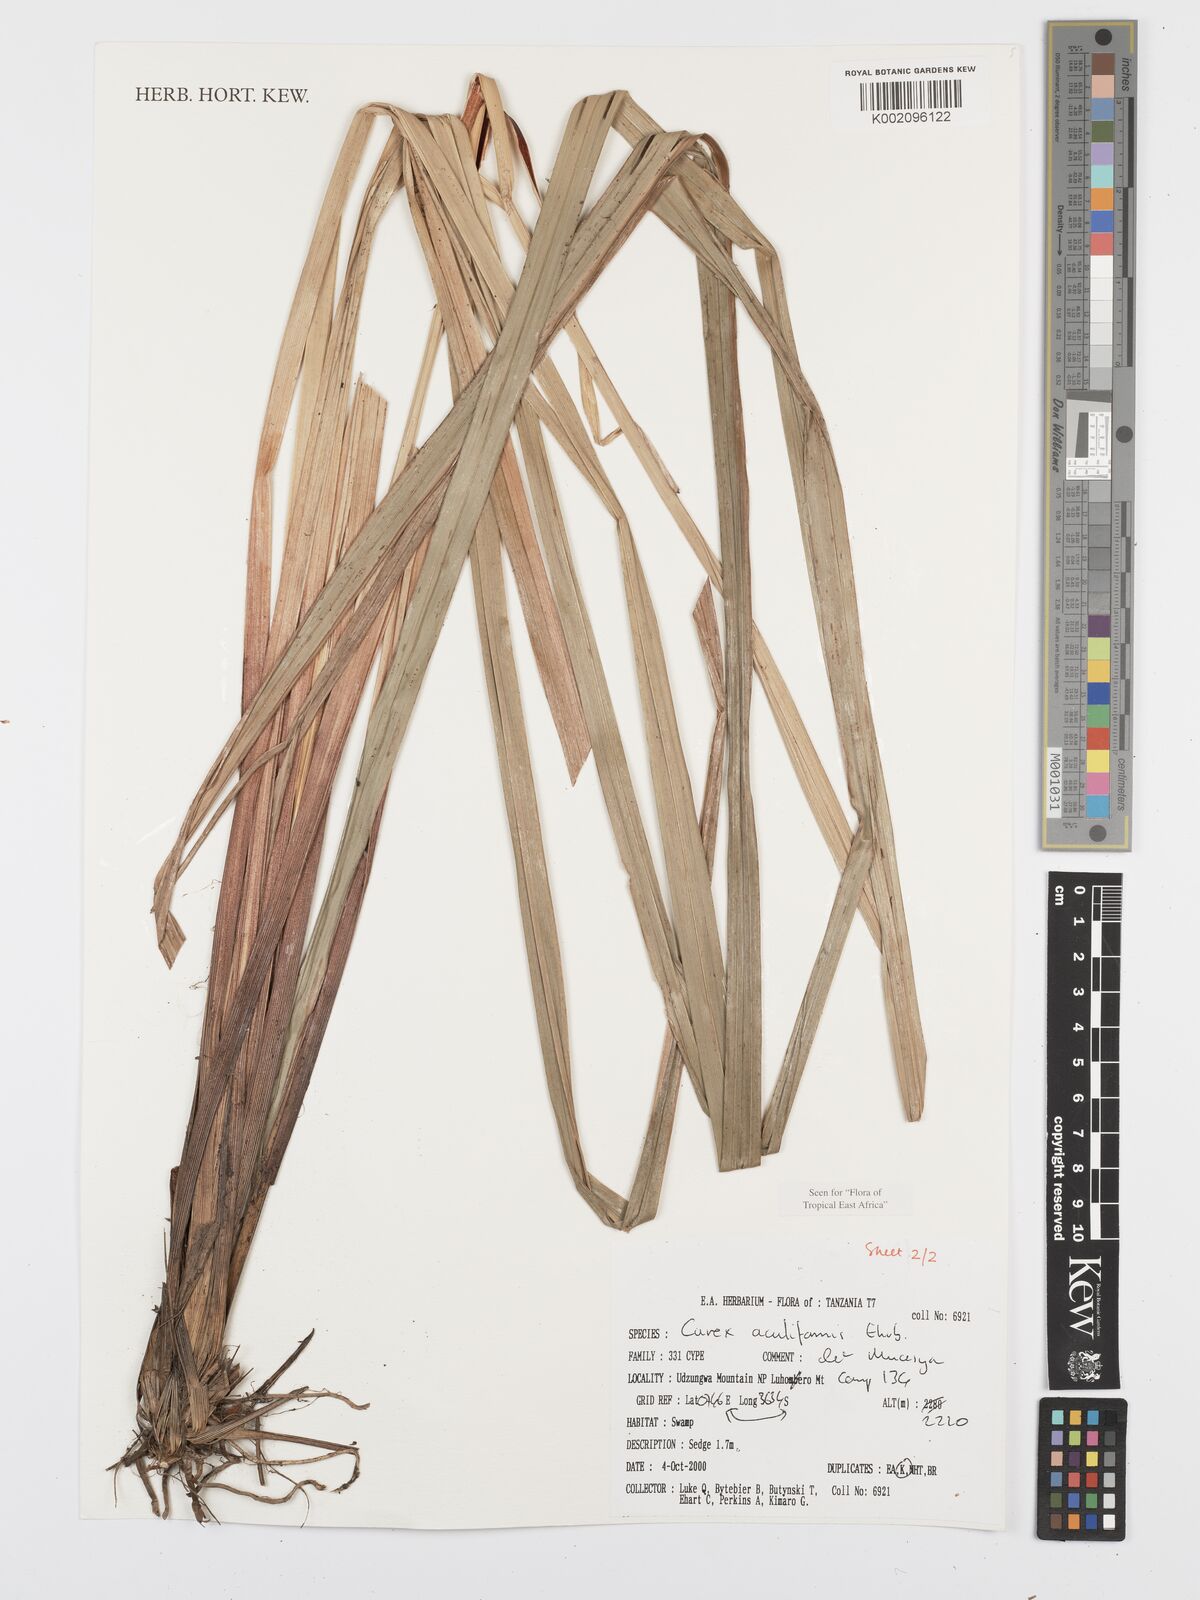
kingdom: Plantae
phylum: Tracheophyta
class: Liliopsida
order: Poales
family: Cyperaceae
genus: Carex
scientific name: Carex vallis-rosetto
